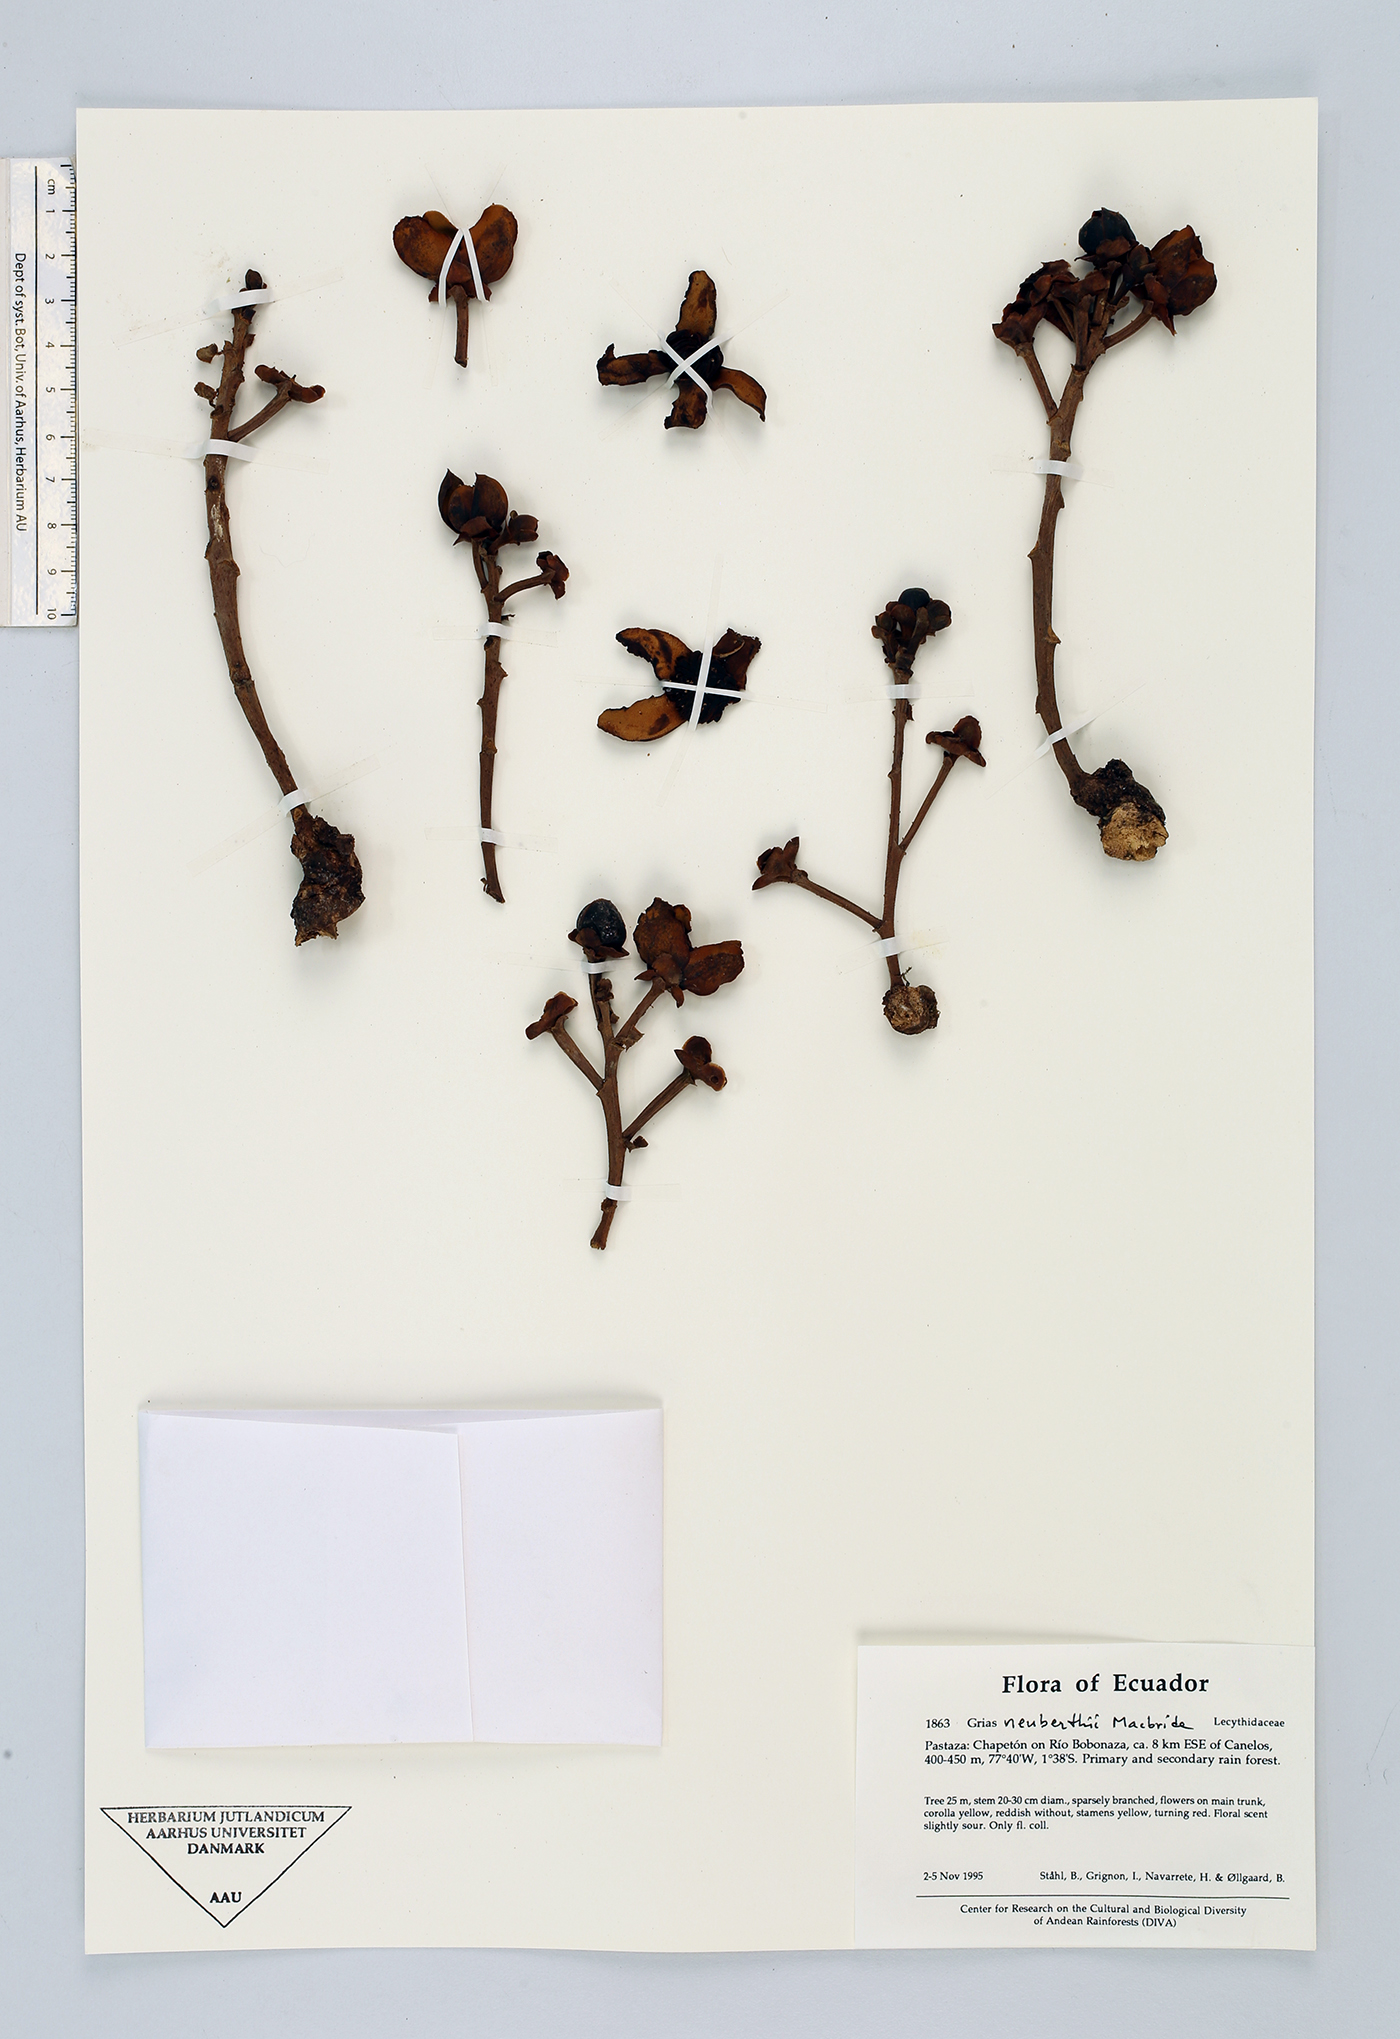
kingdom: Plantae
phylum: Tracheophyta
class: Magnoliopsida
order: Ericales
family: Lecythidaceae
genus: Grias
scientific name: Grias
